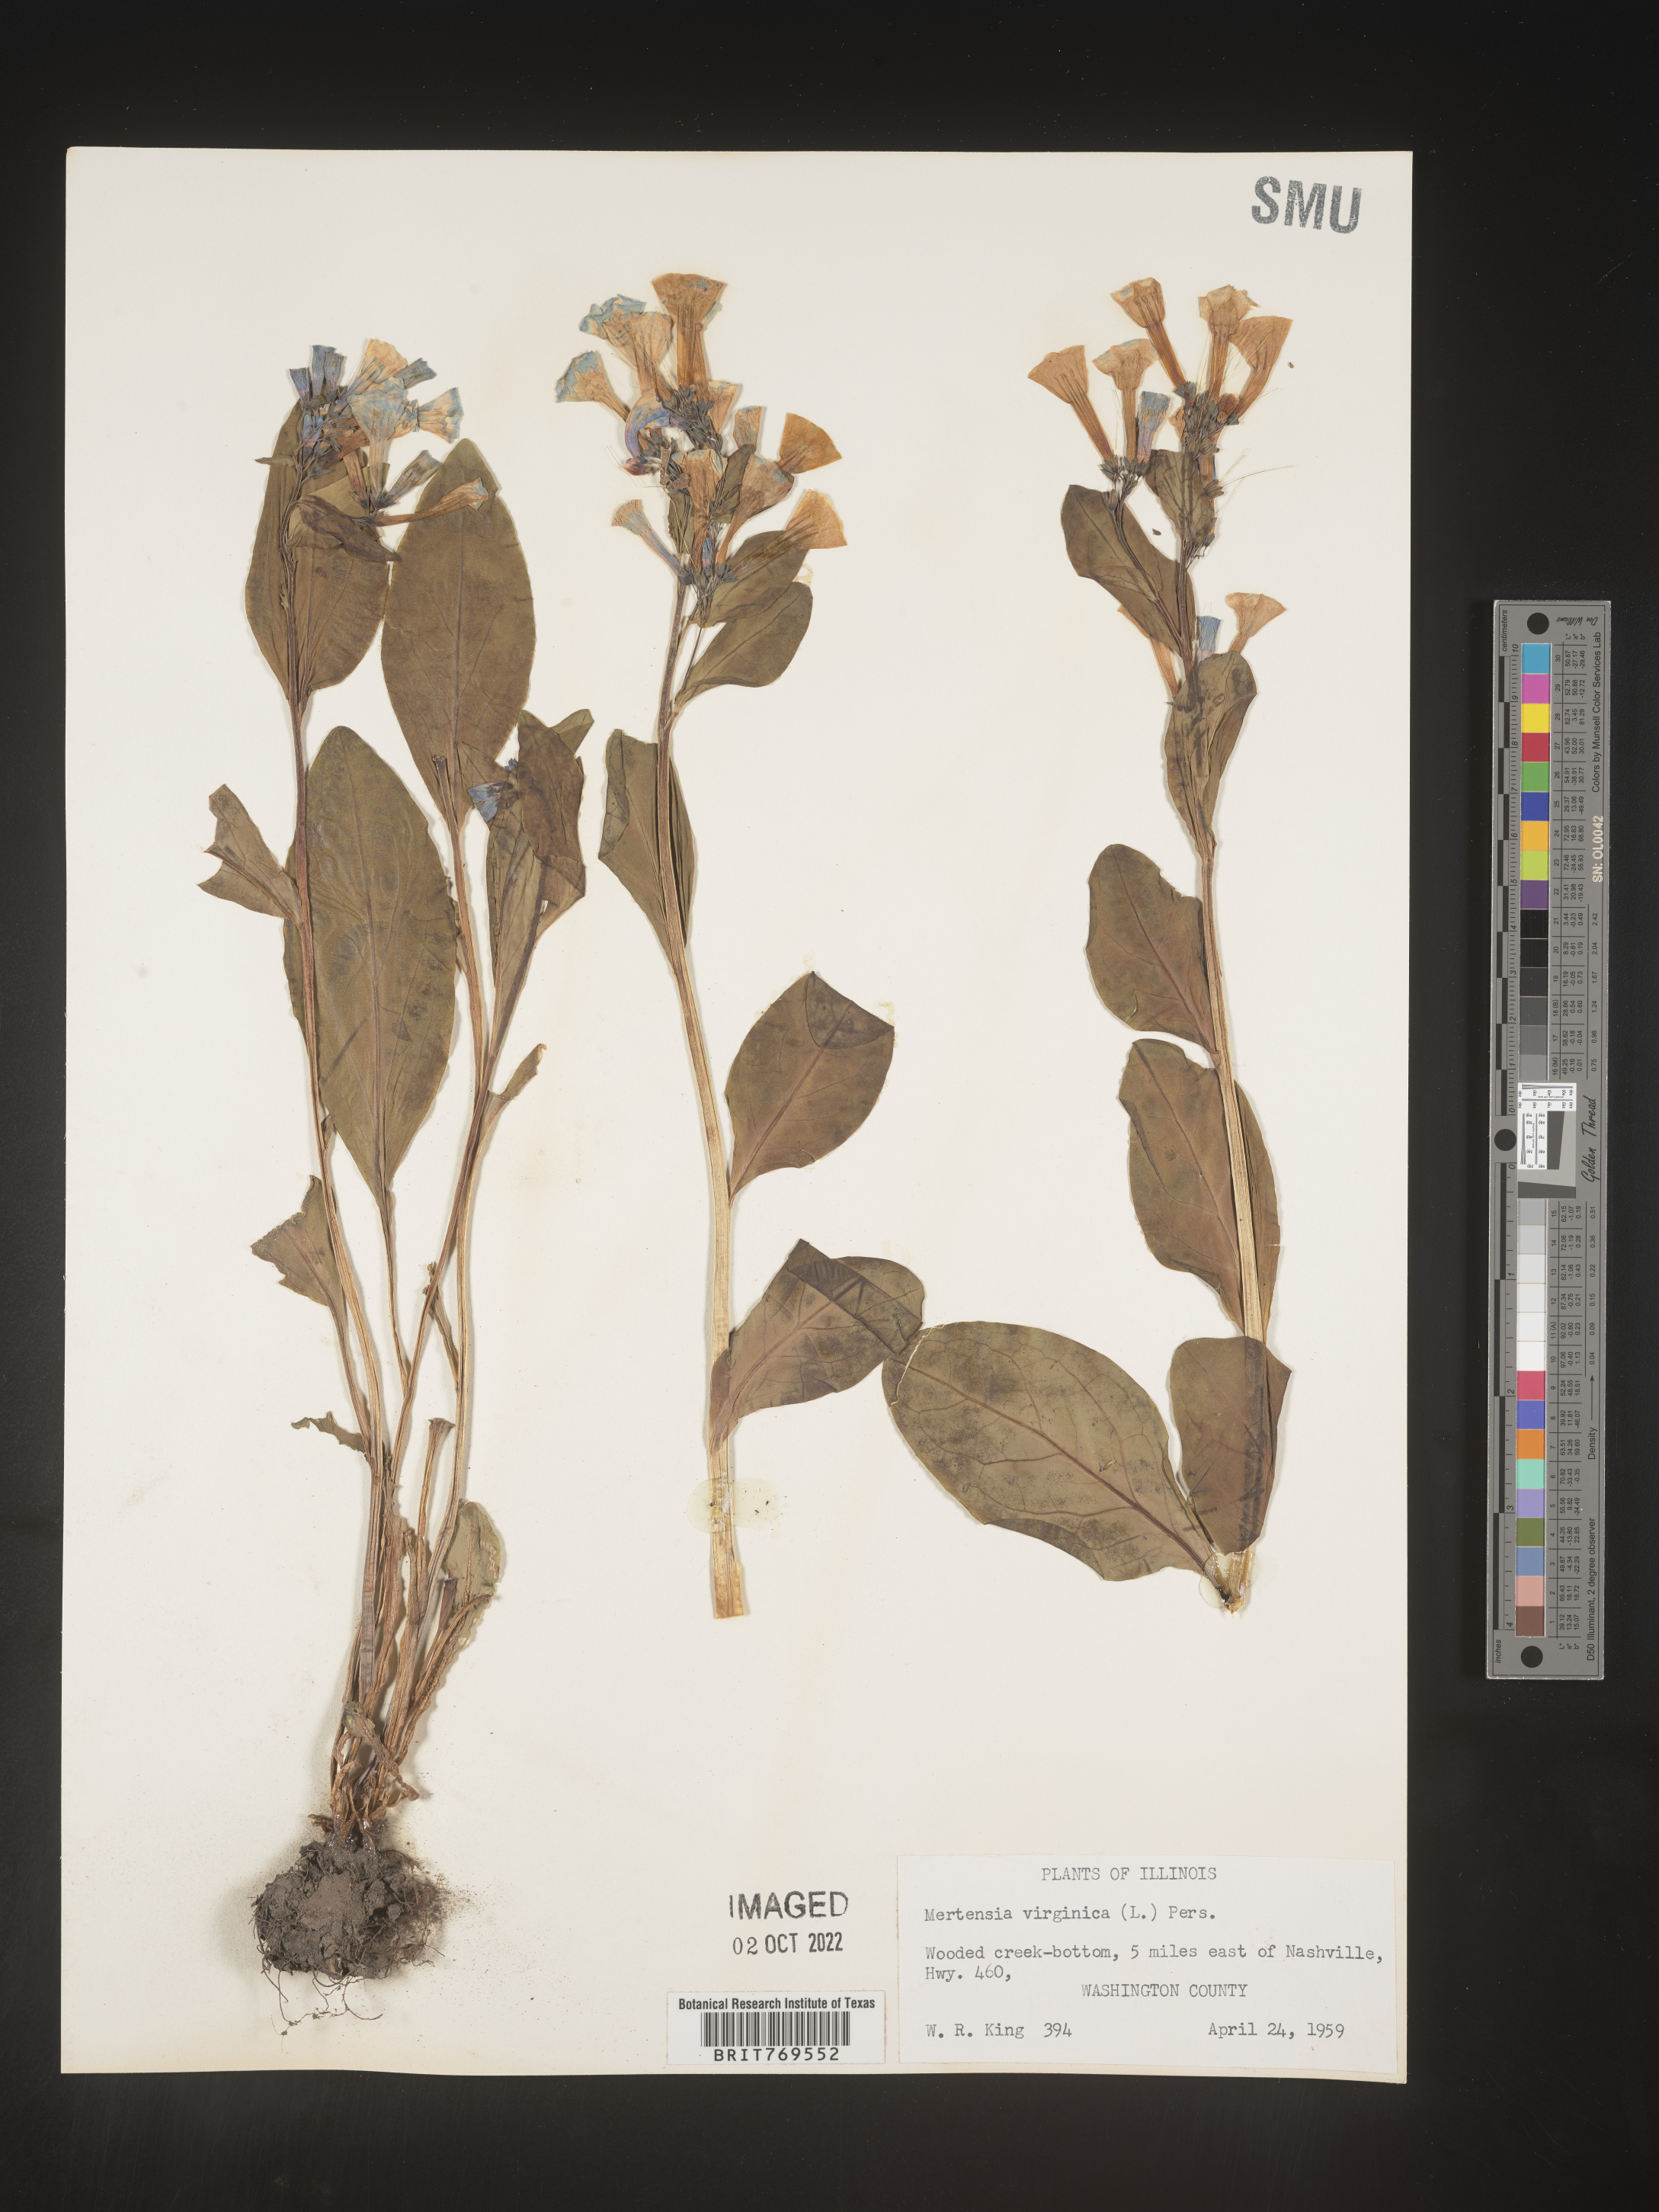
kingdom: Plantae
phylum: Tracheophyta
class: Magnoliopsida
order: Boraginales
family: Boraginaceae
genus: Mertensia
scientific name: Mertensia virginica
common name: Virginia bluebells
